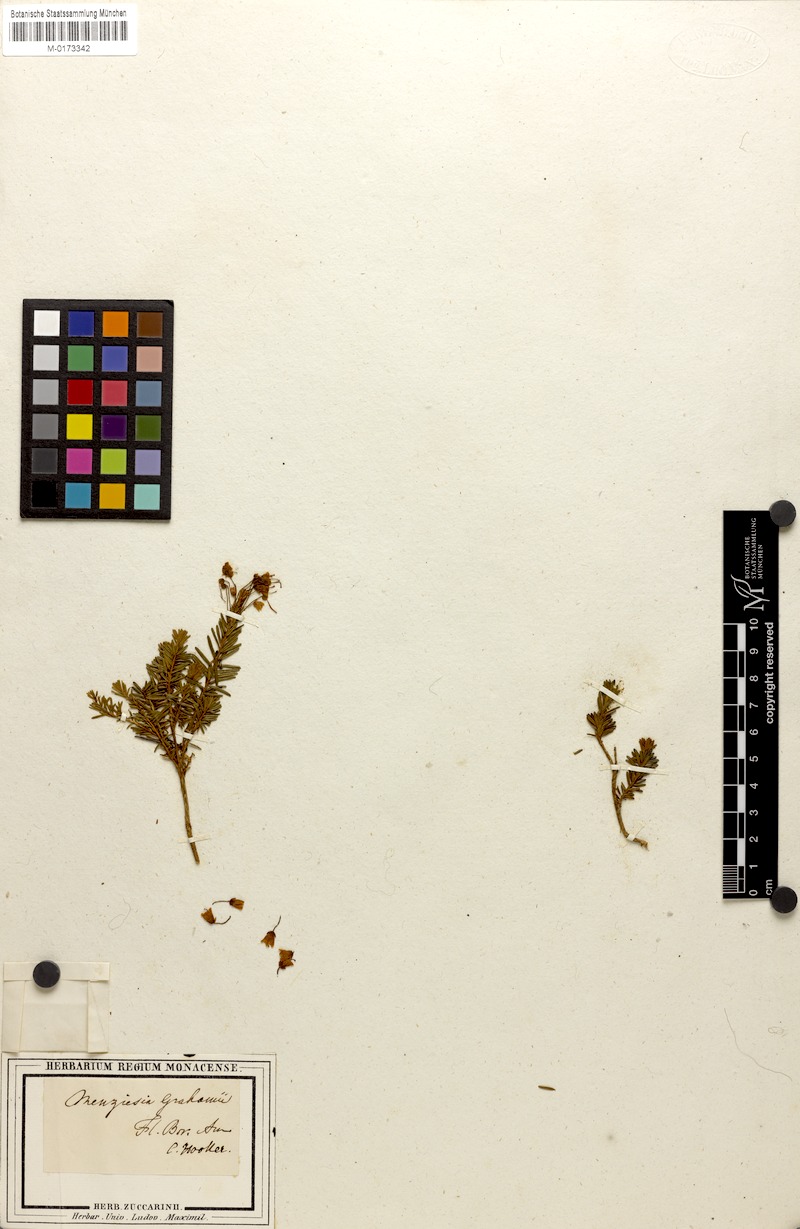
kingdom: Plantae
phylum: Tracheophyta
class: Magnoliopsida
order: Ericales
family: Ericaceae
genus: Phyllodoce
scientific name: Phyllodoce grahamii
